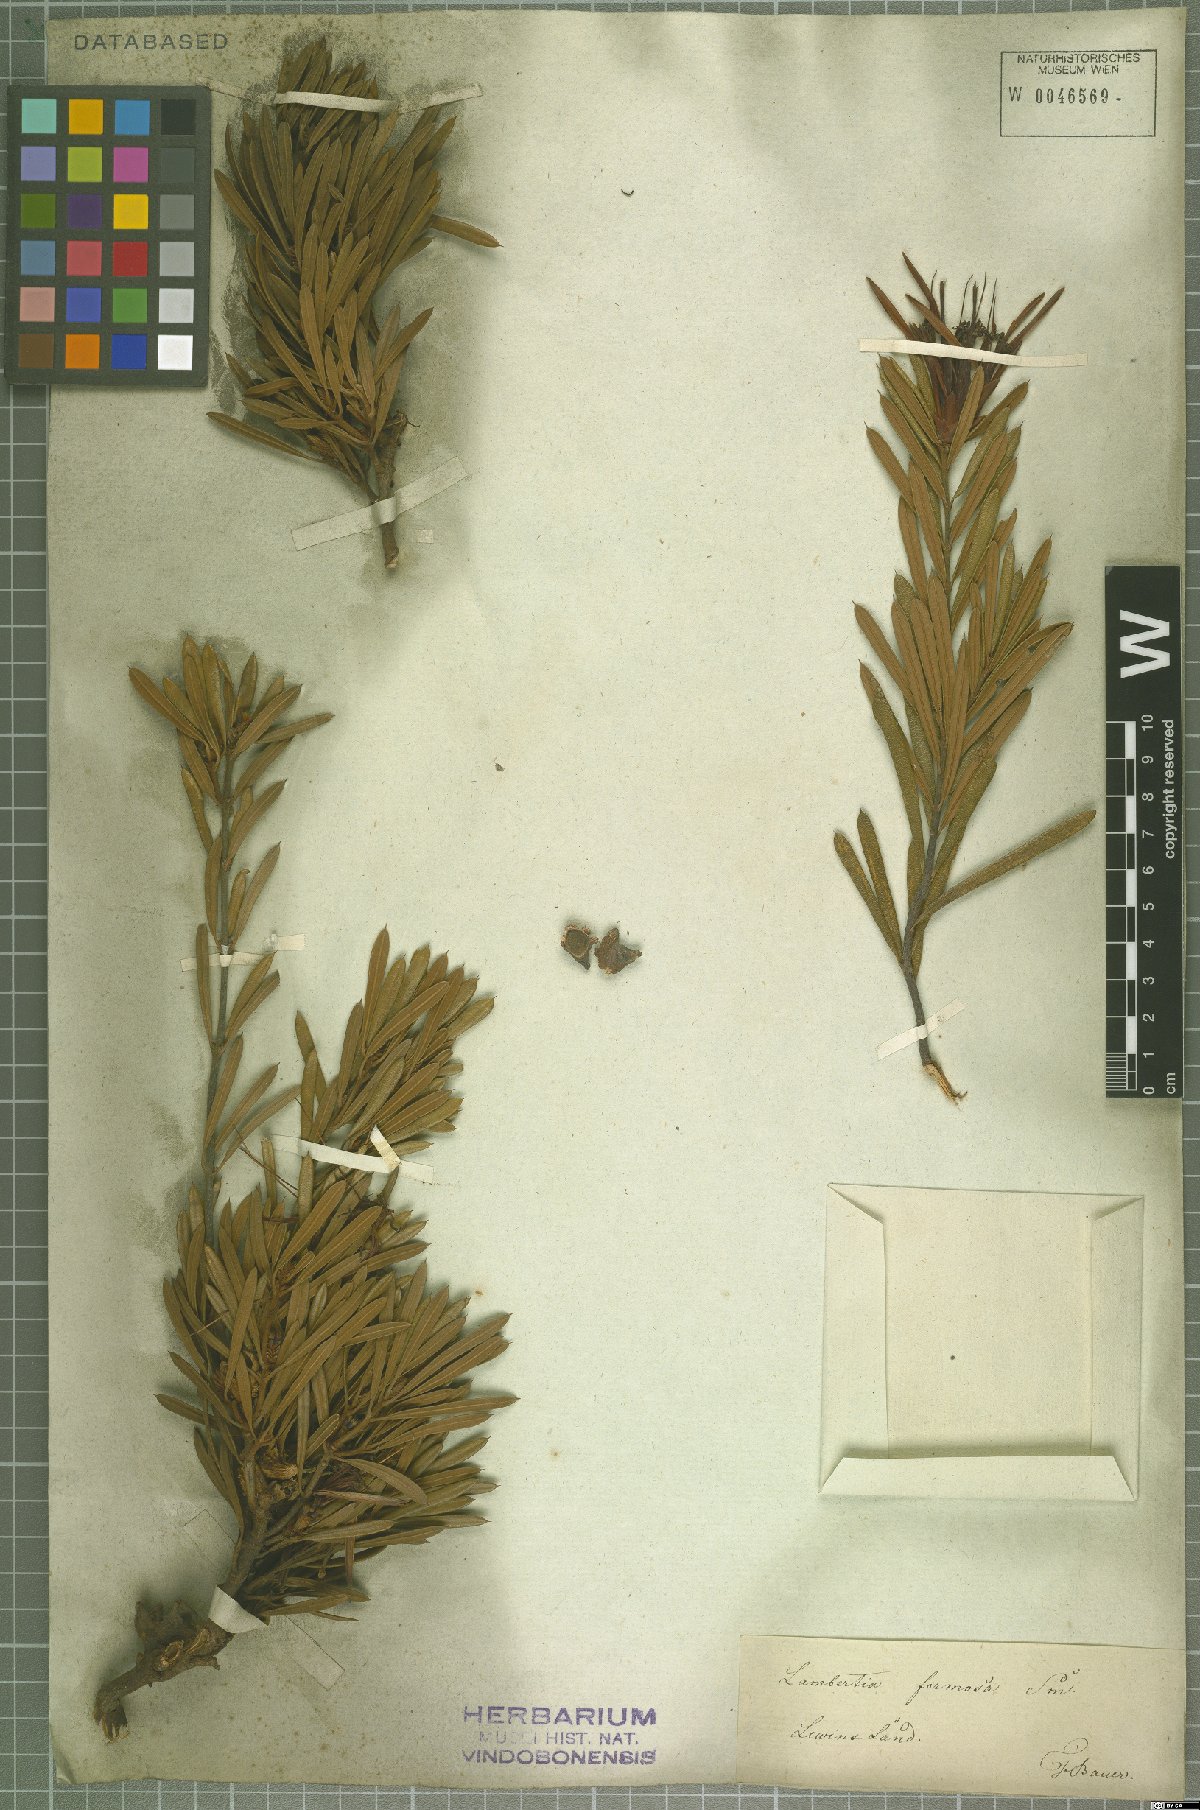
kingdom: Plantae
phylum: Tracheophyta
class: Magnoliopsida
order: Proteales
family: Proteaceae
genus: Lambertia
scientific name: Lambertia formosa
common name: Mountain-devil
